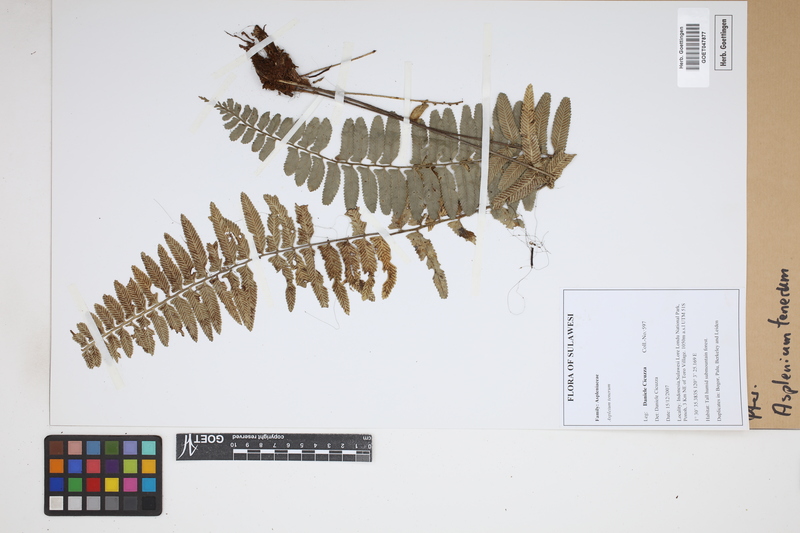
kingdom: Plantae
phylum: Tracheophyta
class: Polypodiopsida
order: Polypodiales
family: Aspleniaceae
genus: Asplenium
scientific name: Asplenium tenerum
